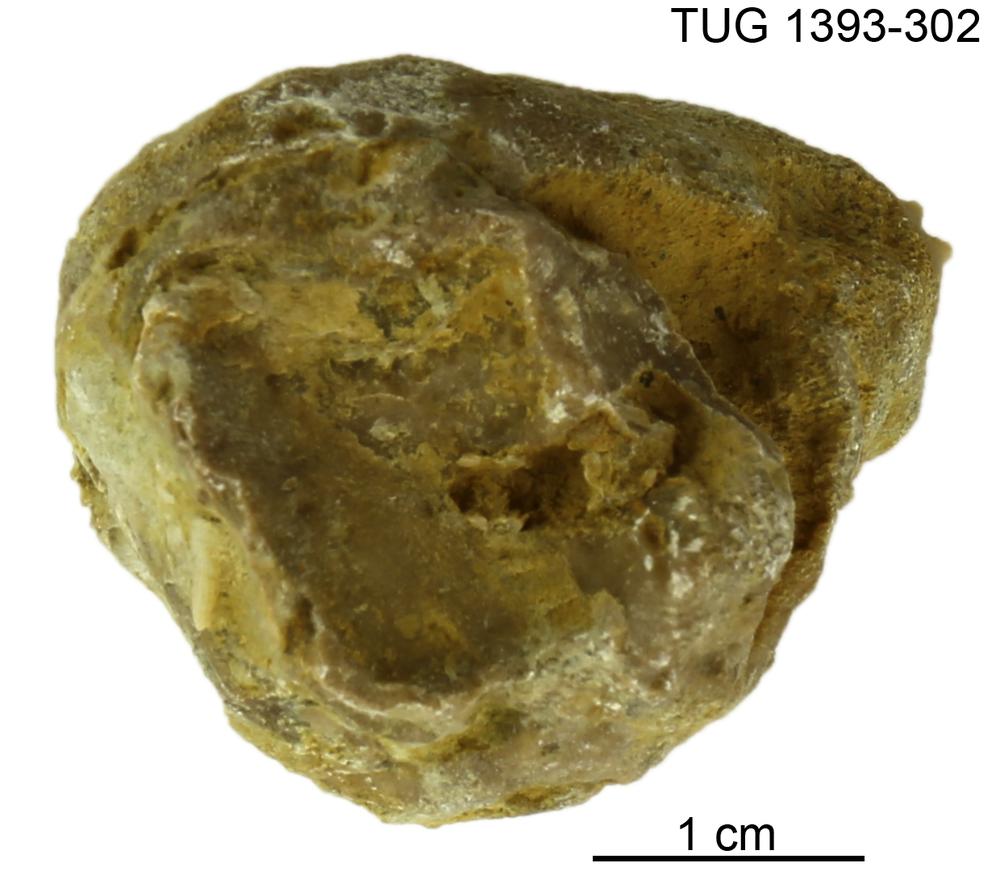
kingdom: Animalia
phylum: Bryozoa
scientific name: Bryozoa
